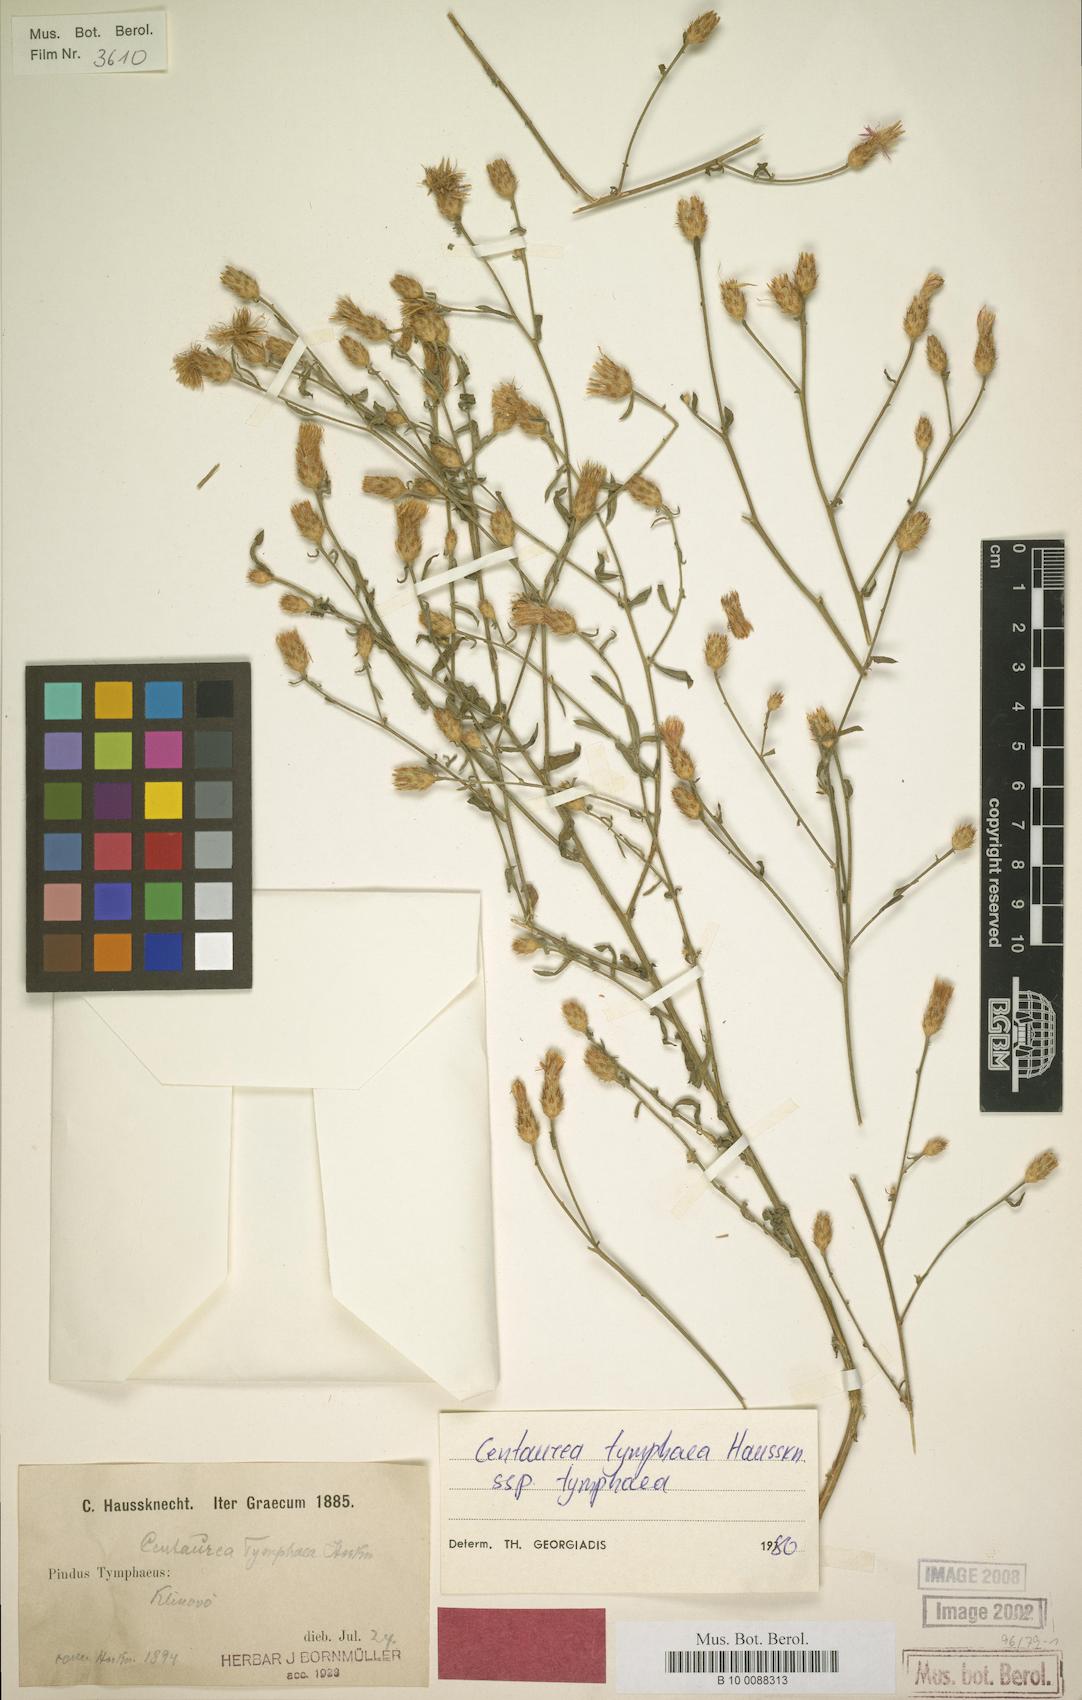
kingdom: Plantae
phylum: Tracheophyta
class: Magnoliopsida
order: Asterales
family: Asteraceae
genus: Centaurea
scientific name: Centaurea tymphaea
